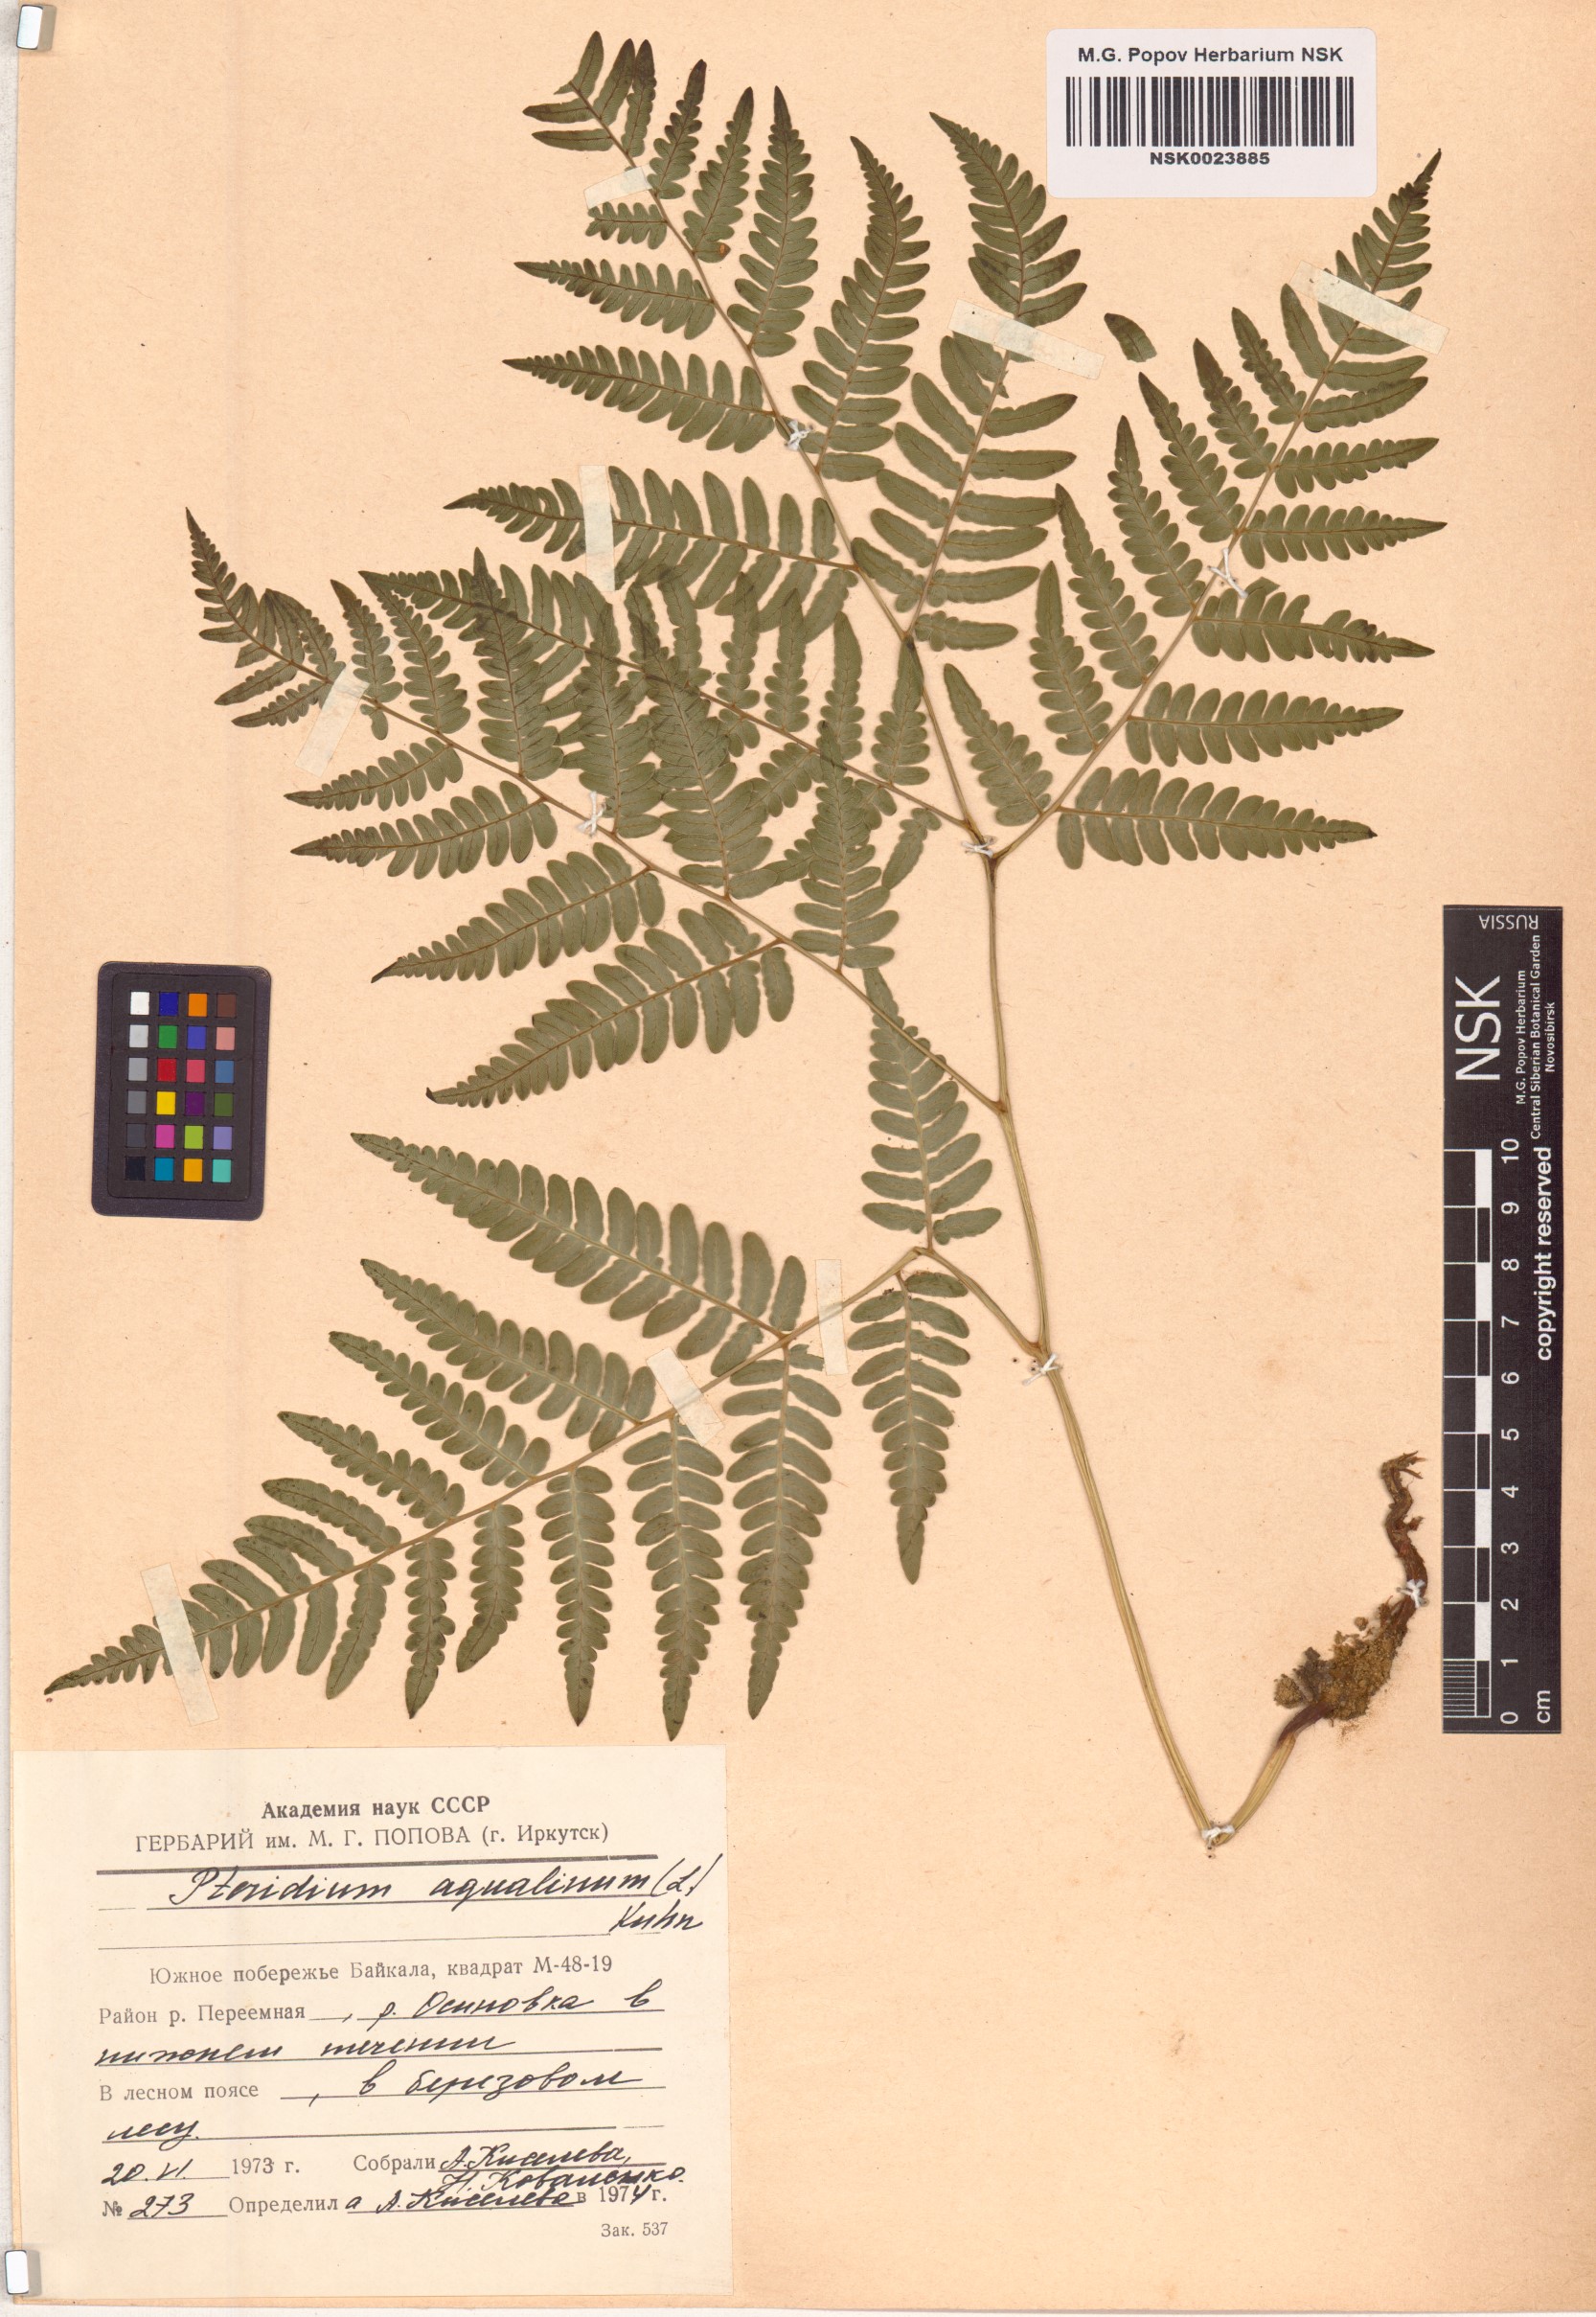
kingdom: Plantae
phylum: Tracheophyta
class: Polypodiopsida
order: Polypodiales
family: Dennstaedtiaceae
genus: Pteridium
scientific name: Pteridium aquilinum
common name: Bracken
